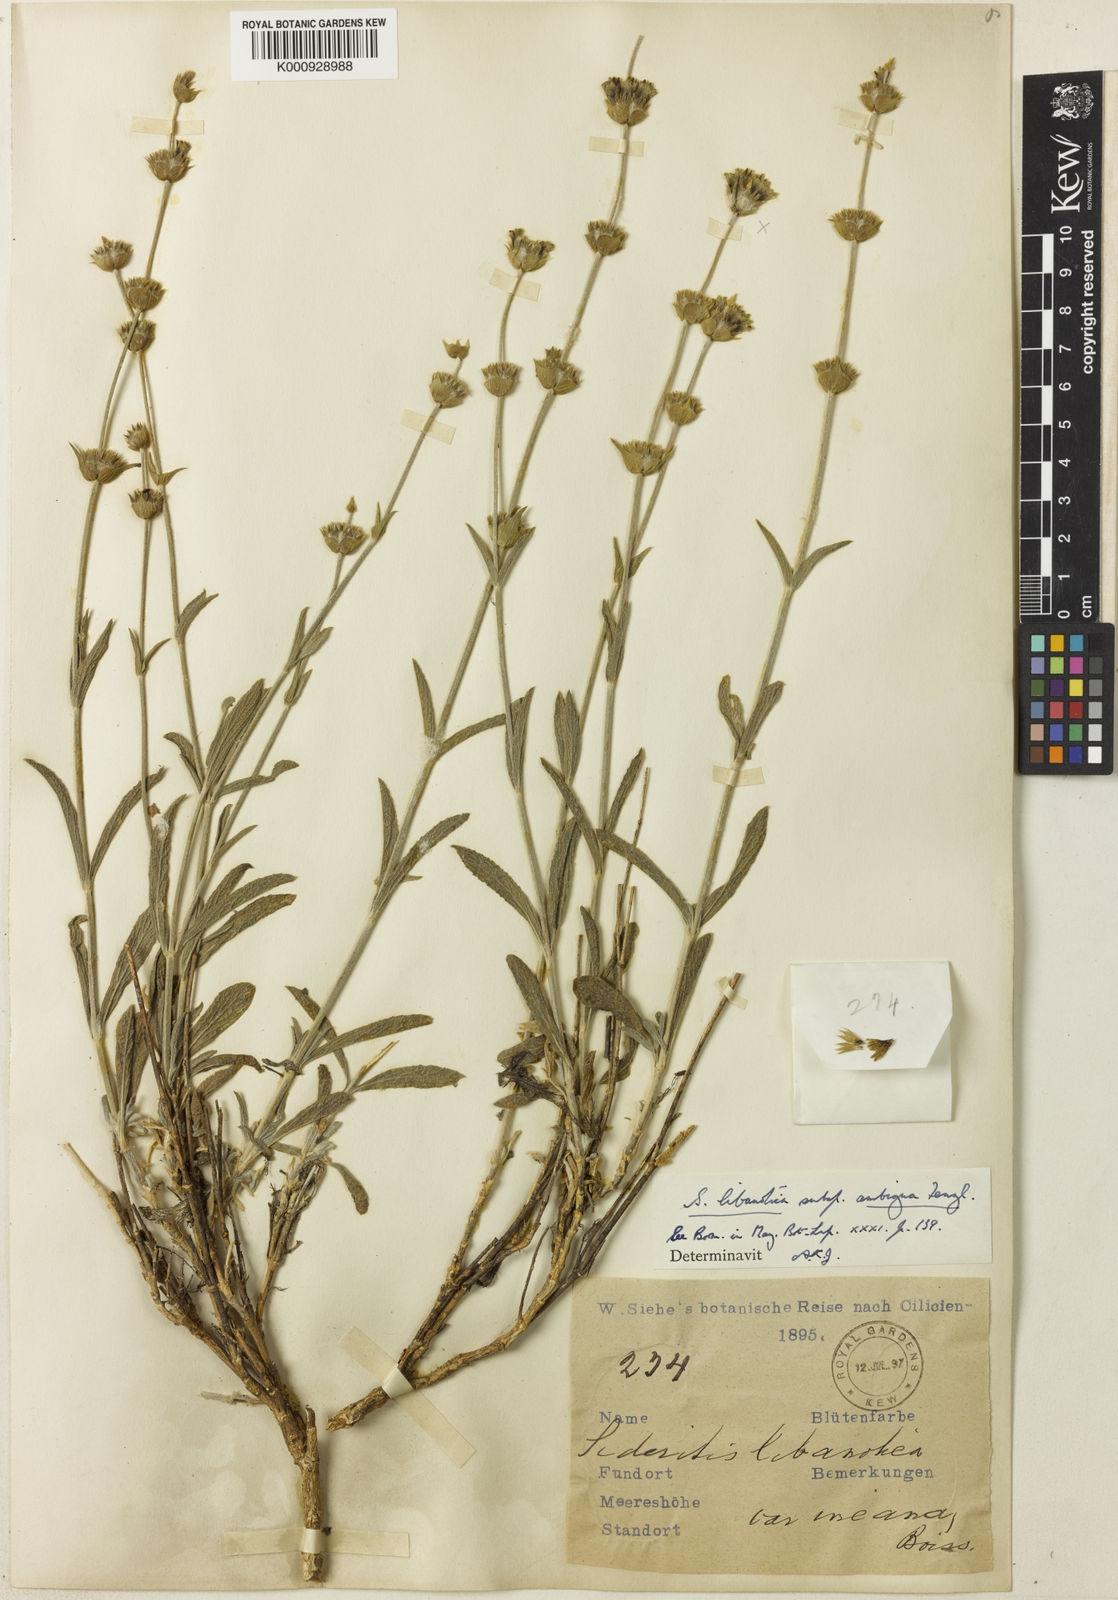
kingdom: Plantae
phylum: Tracheophyta
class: Magnoliopsida
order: Lamiales
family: Lamiaceae
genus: Sideritis
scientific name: Sideritis libanotica
